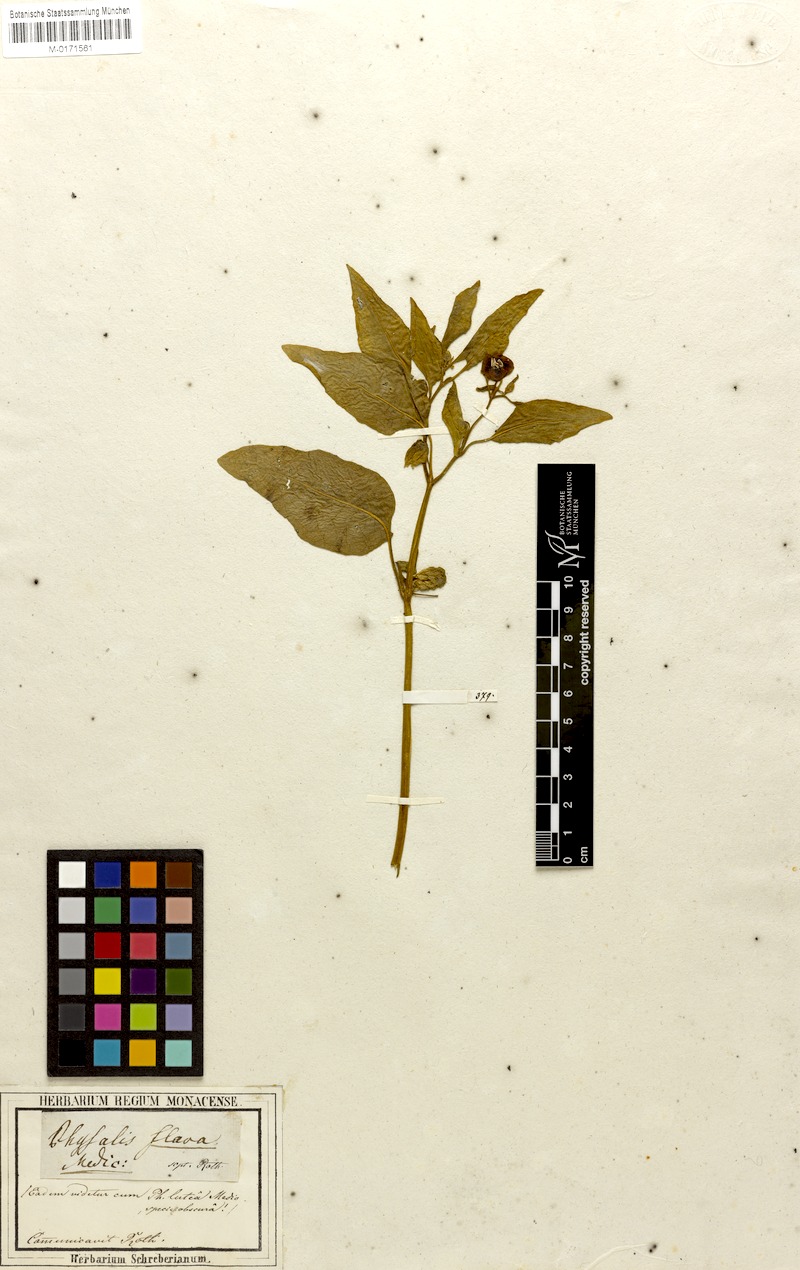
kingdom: Plantae
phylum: Tracheophyta
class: Magnoliopsida
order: Solanales
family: Solanaceae
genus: Physalis
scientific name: Physalis viscosa
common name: Stellate ground-cherry
